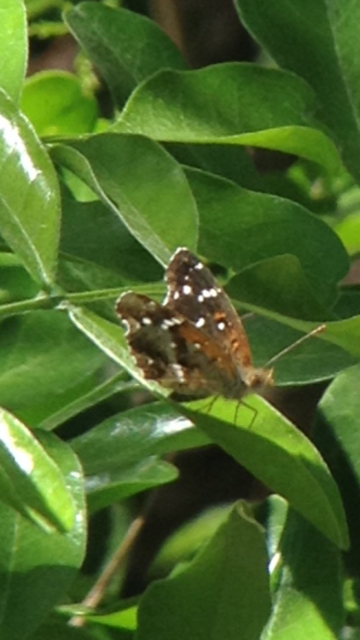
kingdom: Animalia
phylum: Arthropoda
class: Insecta
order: Lepidoptera
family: Nymphalidae
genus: Anthanassa
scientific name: Anthanassa texana
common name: Texan Crescent
